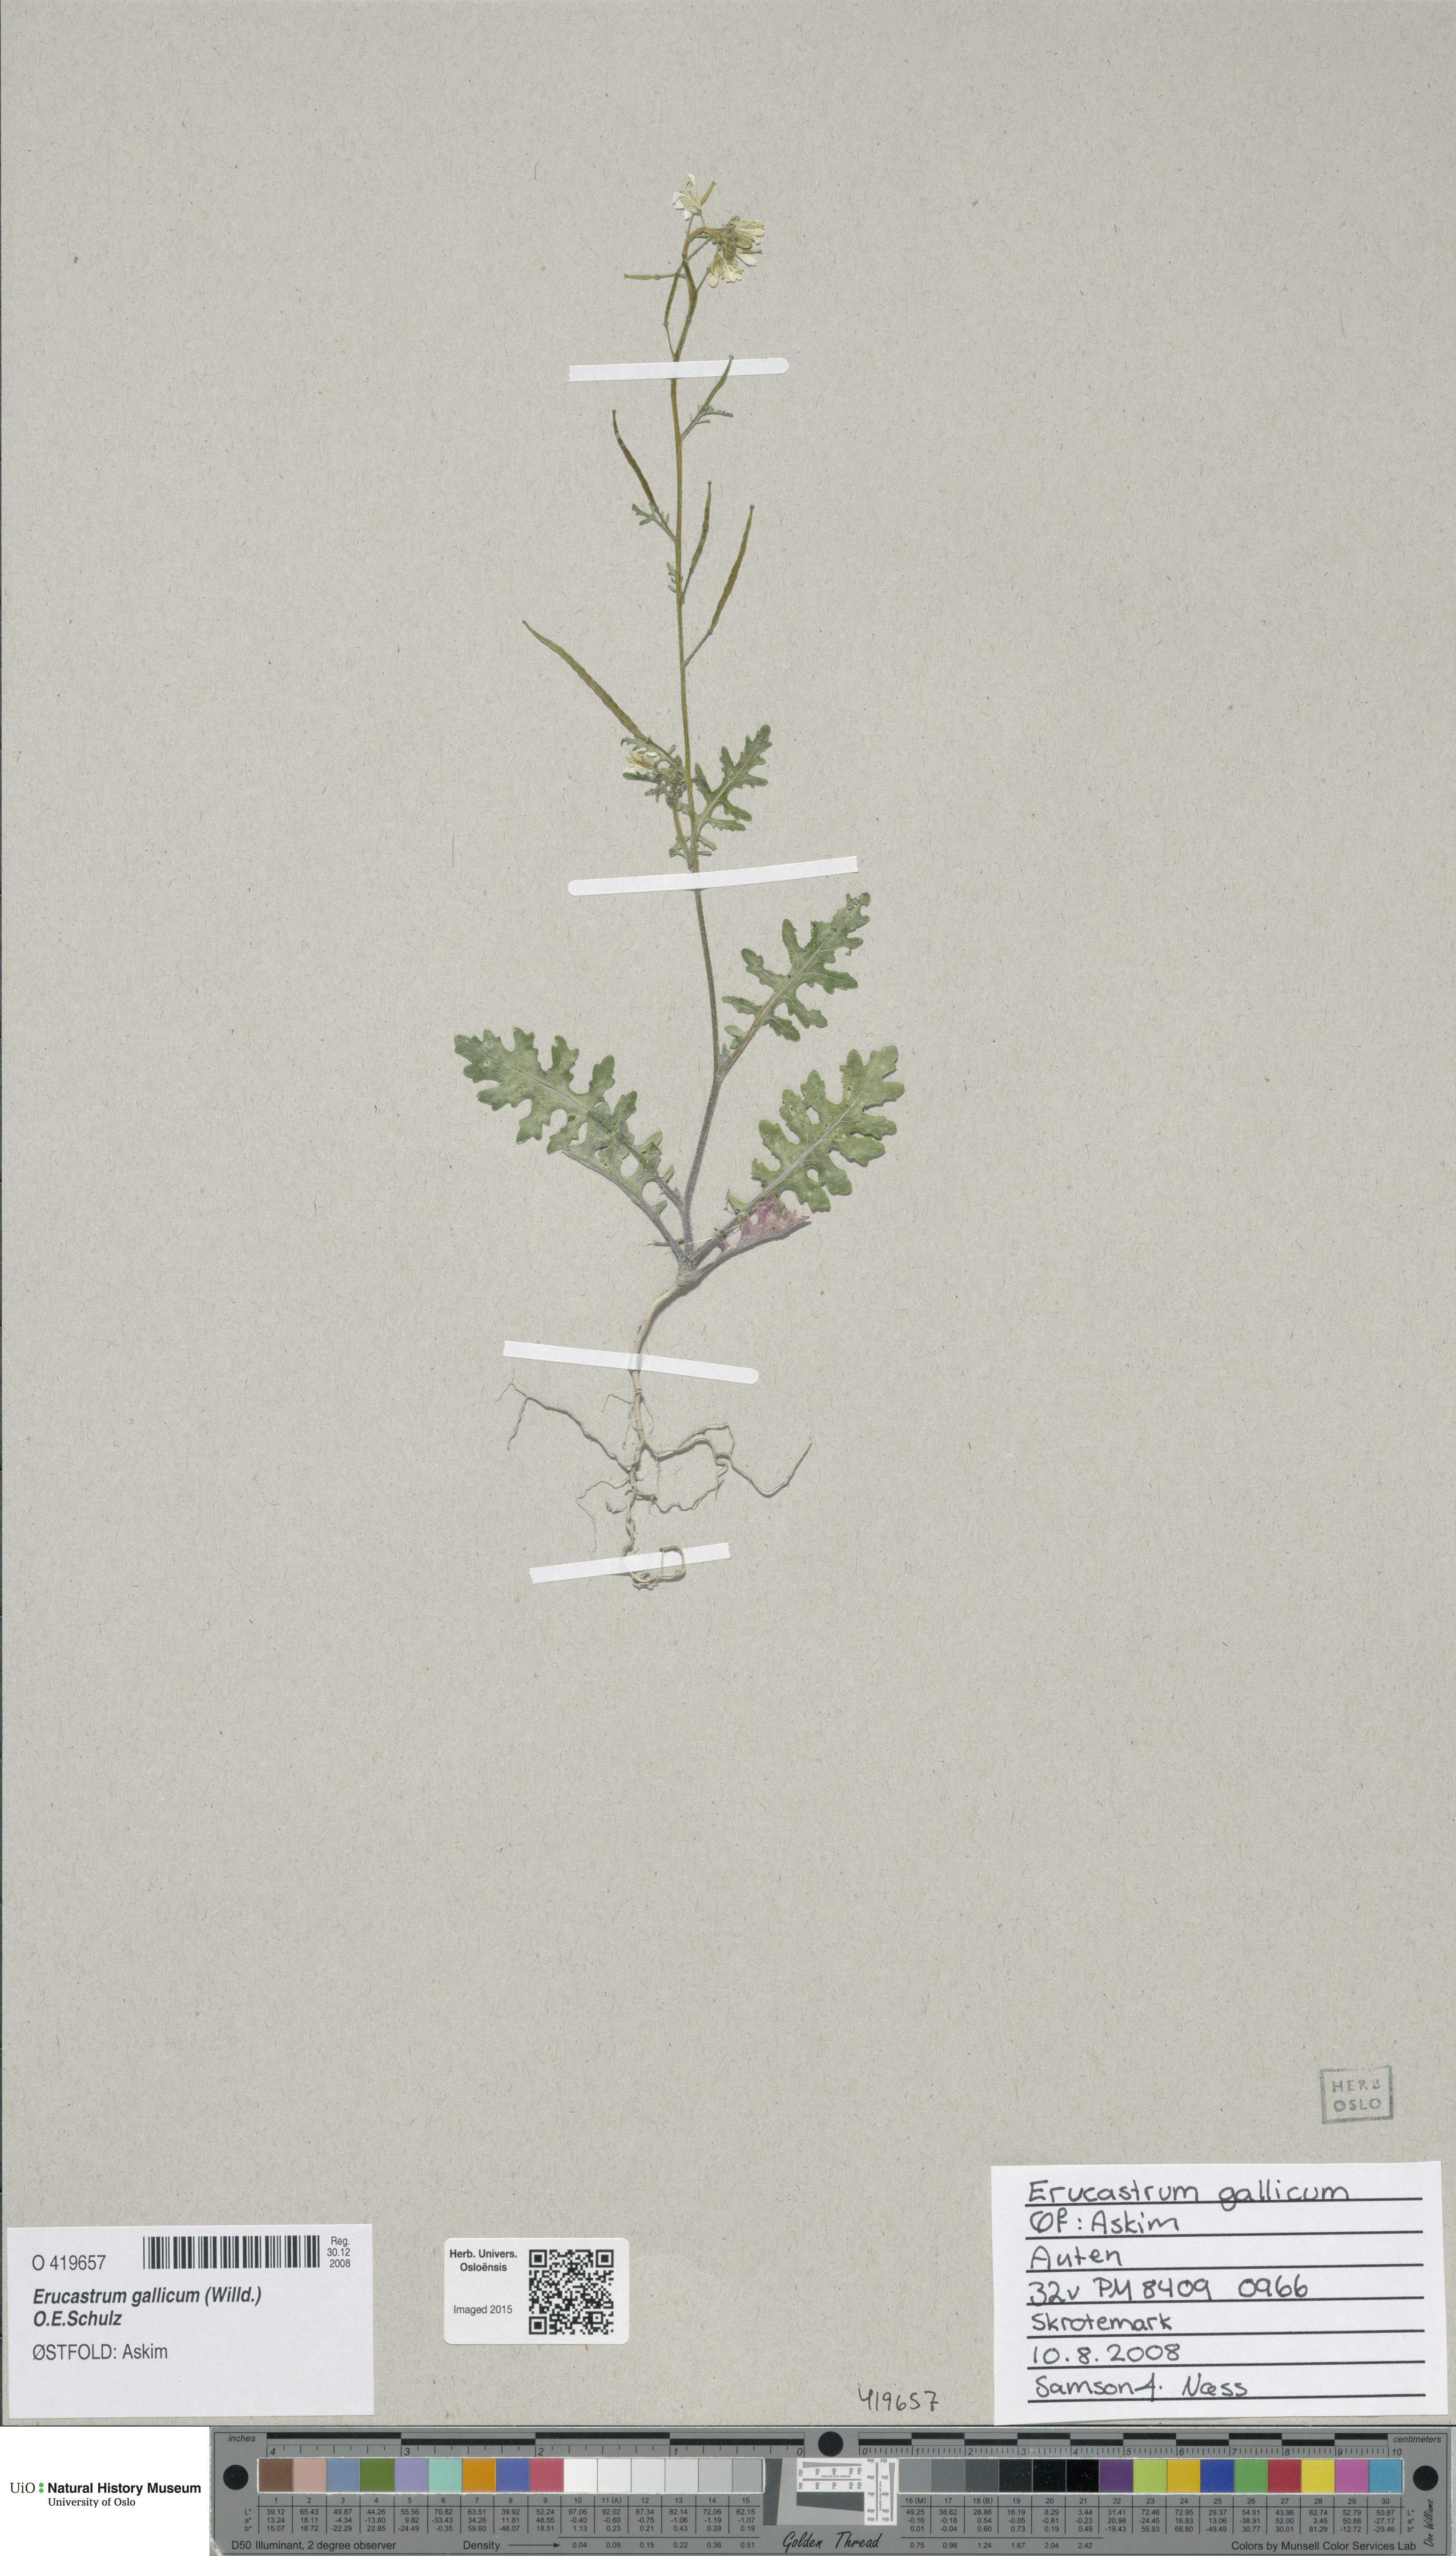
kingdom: Plantae
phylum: Tracheophyta
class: Magnoliopsida
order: Brassicales
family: Brassicaceae
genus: Erucastrum
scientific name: Erucastrum gallicum
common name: Hairy rocket
